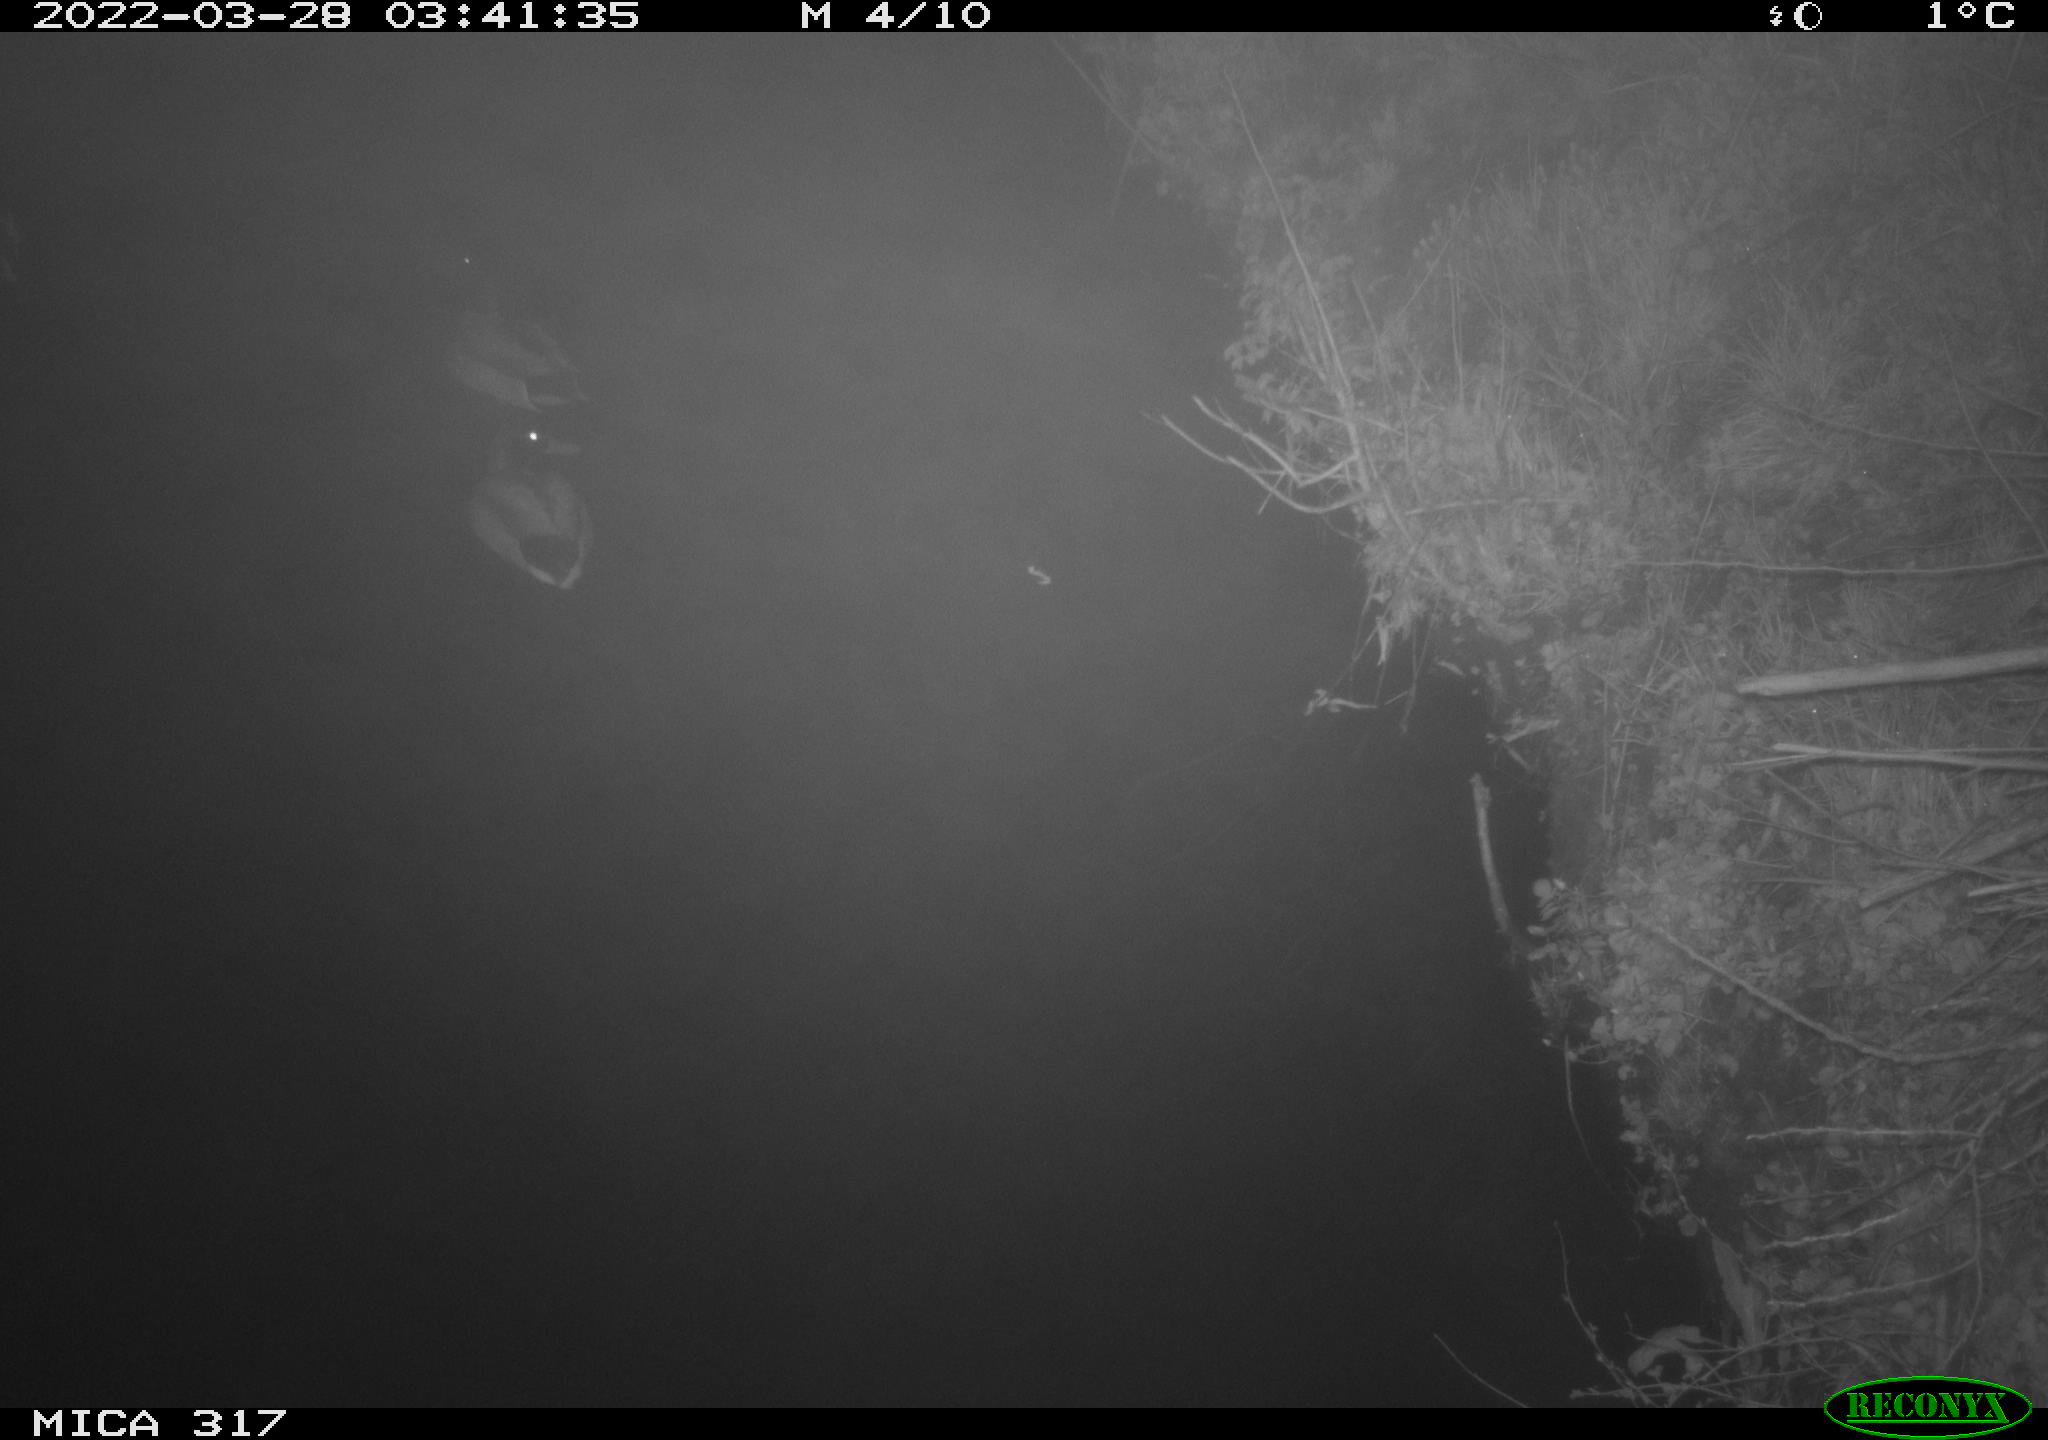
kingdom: Animalia
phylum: Chordata
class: Aves
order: Anseriformes
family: Anatidae
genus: Anas
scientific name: Anas platyrhynchos
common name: Mallard
